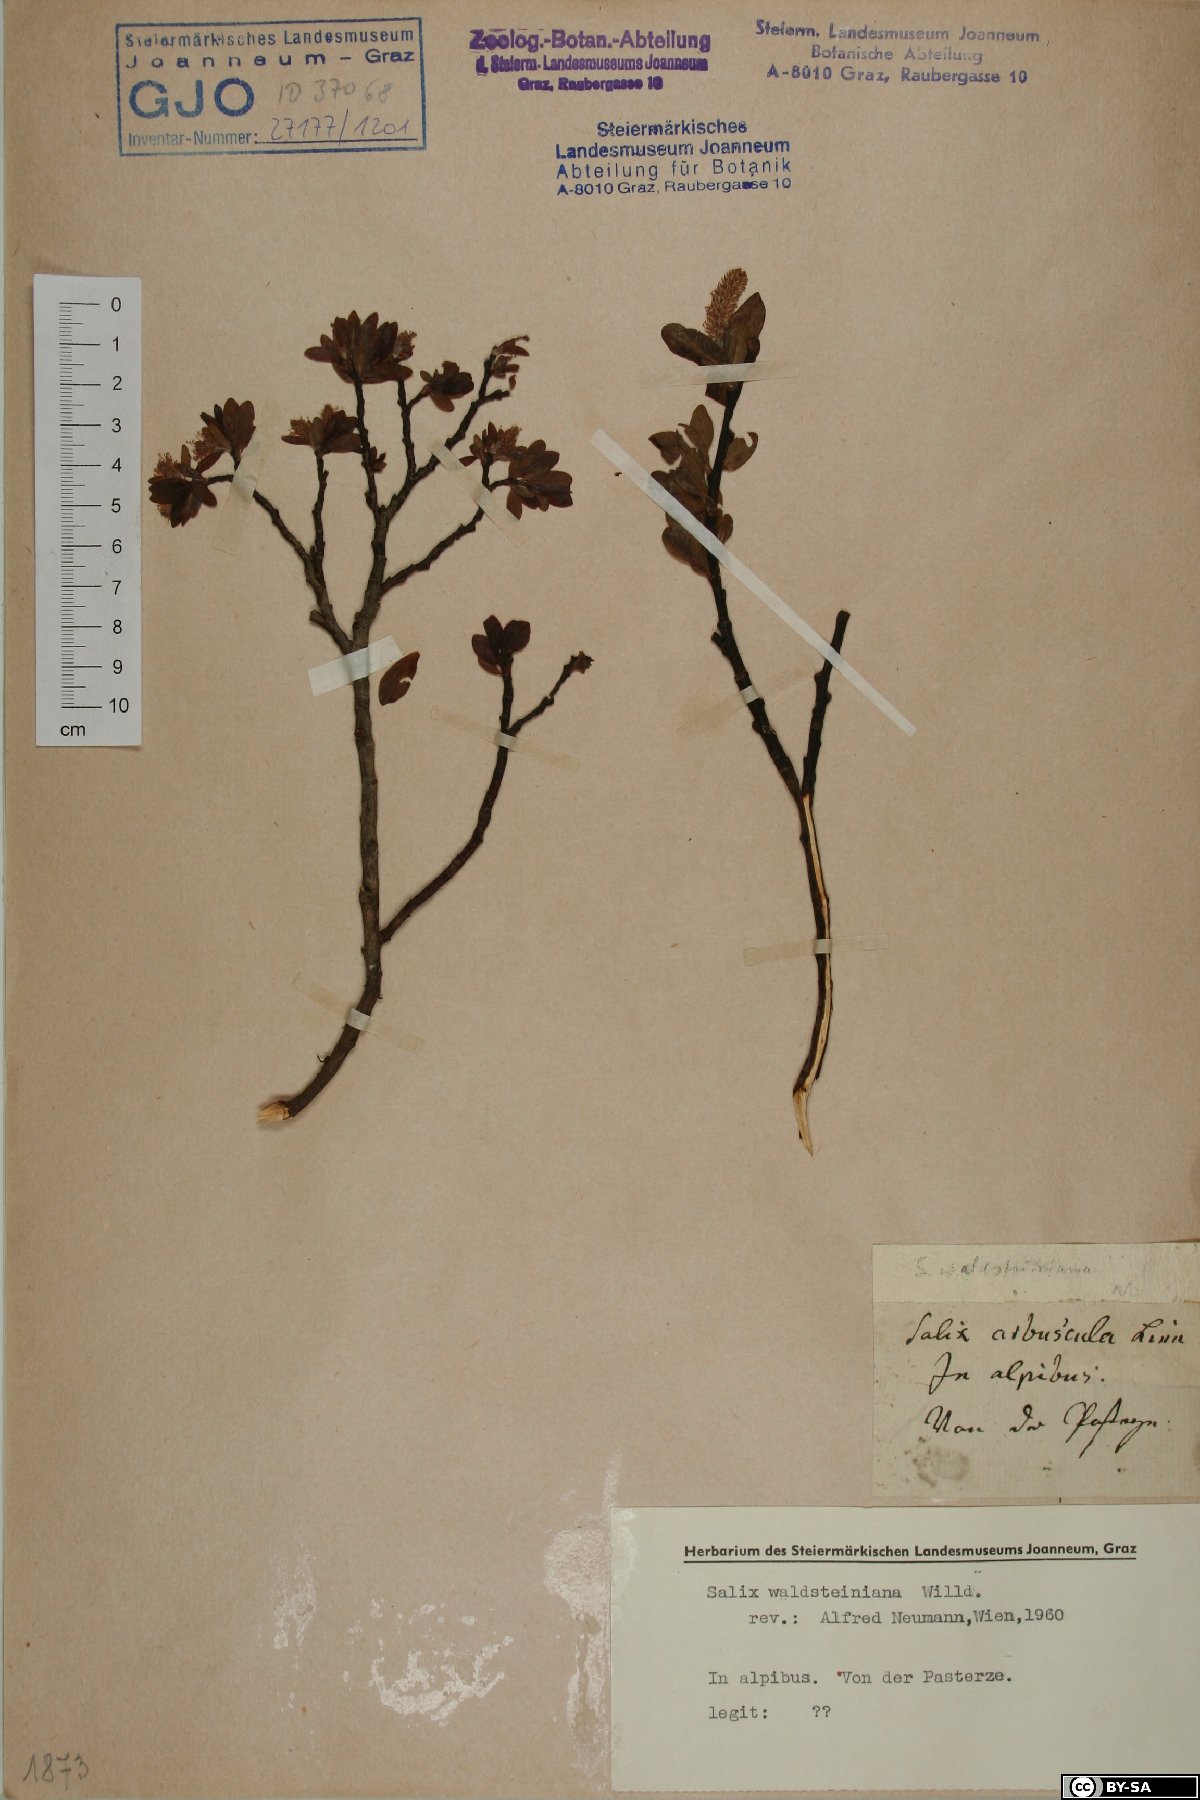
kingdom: Plantae
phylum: Tracheophyta
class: Magnoliopsida
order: Malpighiales
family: Salicaceae
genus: Salix
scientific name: Salix waldsteiniana
